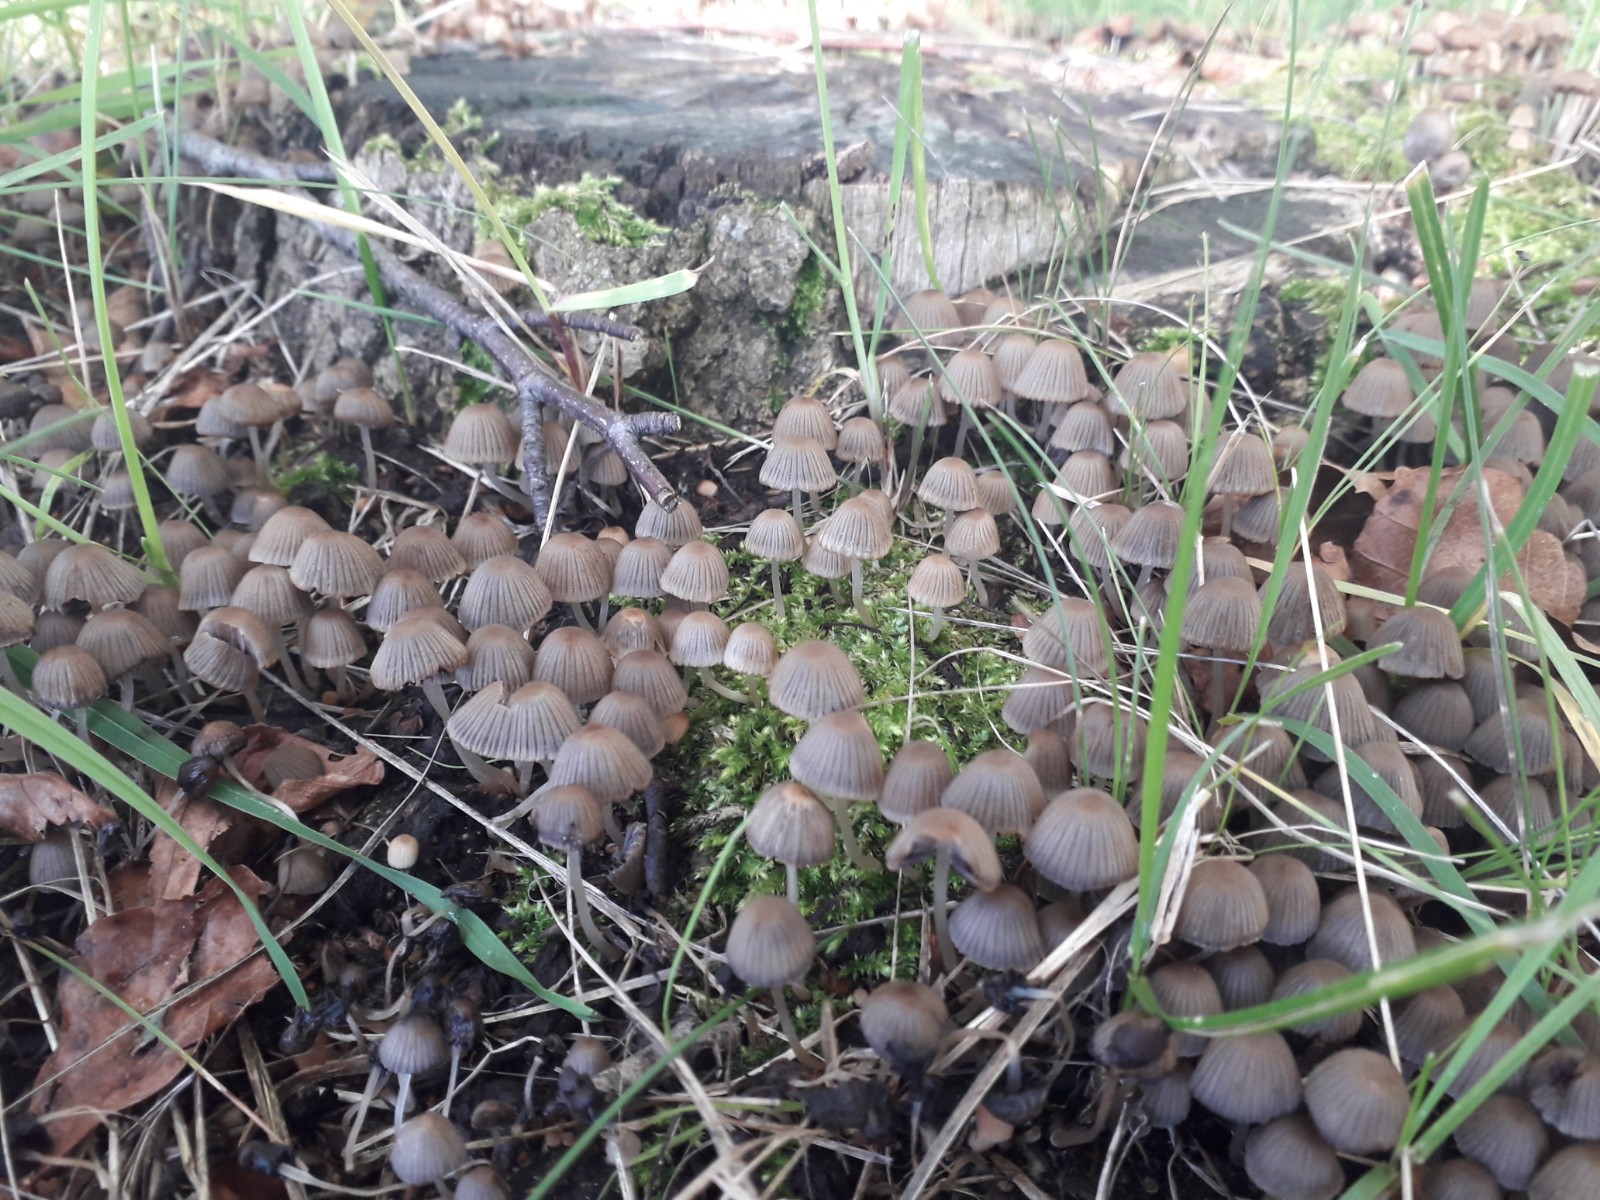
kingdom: Fungi
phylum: Basidiomycota
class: Agaricomycetes
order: Agaricales
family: Psathyrellaceae
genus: Coprinellus
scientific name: Coprinellus disseminatus
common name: bredsået blækhat
